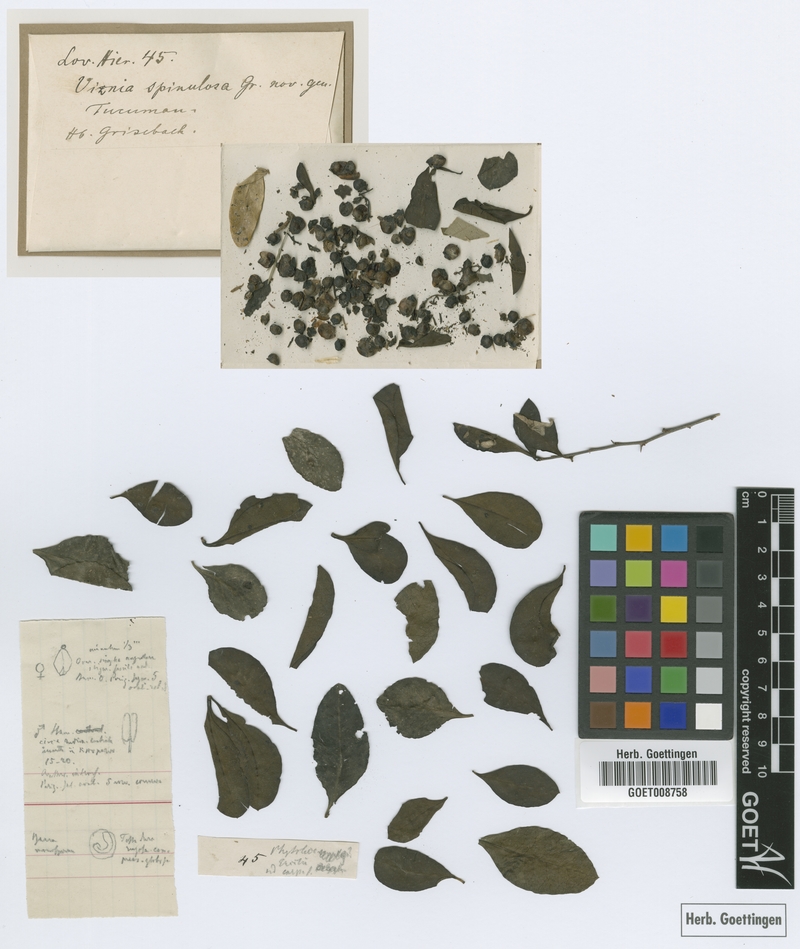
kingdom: Plantae
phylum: Tracheophyta
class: Magnoliopsida
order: Caryophyllales
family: Achatocarpaceae
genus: Achatocarpus
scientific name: Achatocarpus praecox
